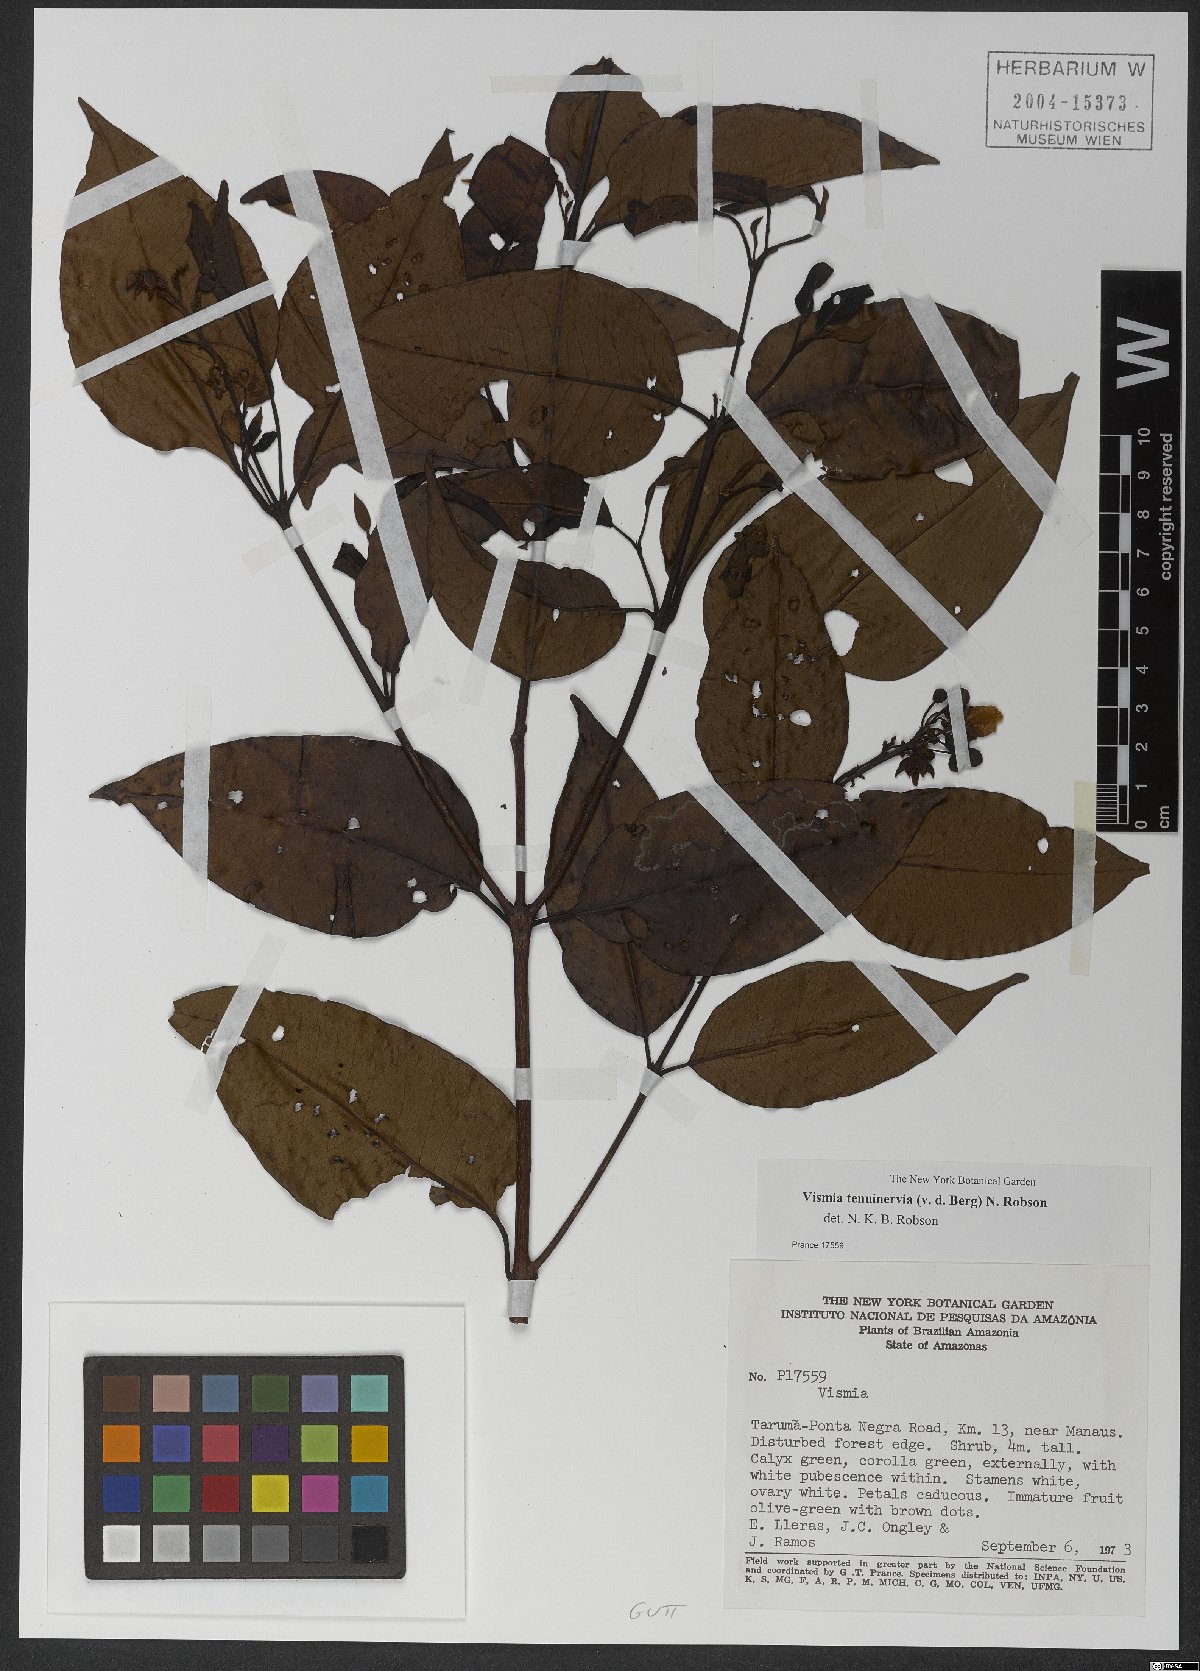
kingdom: Plantae
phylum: Tracheophyta
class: Magnoliopsida
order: Malpighiales
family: Hypericaceae
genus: Vismia
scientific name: Vismia cayennensis
